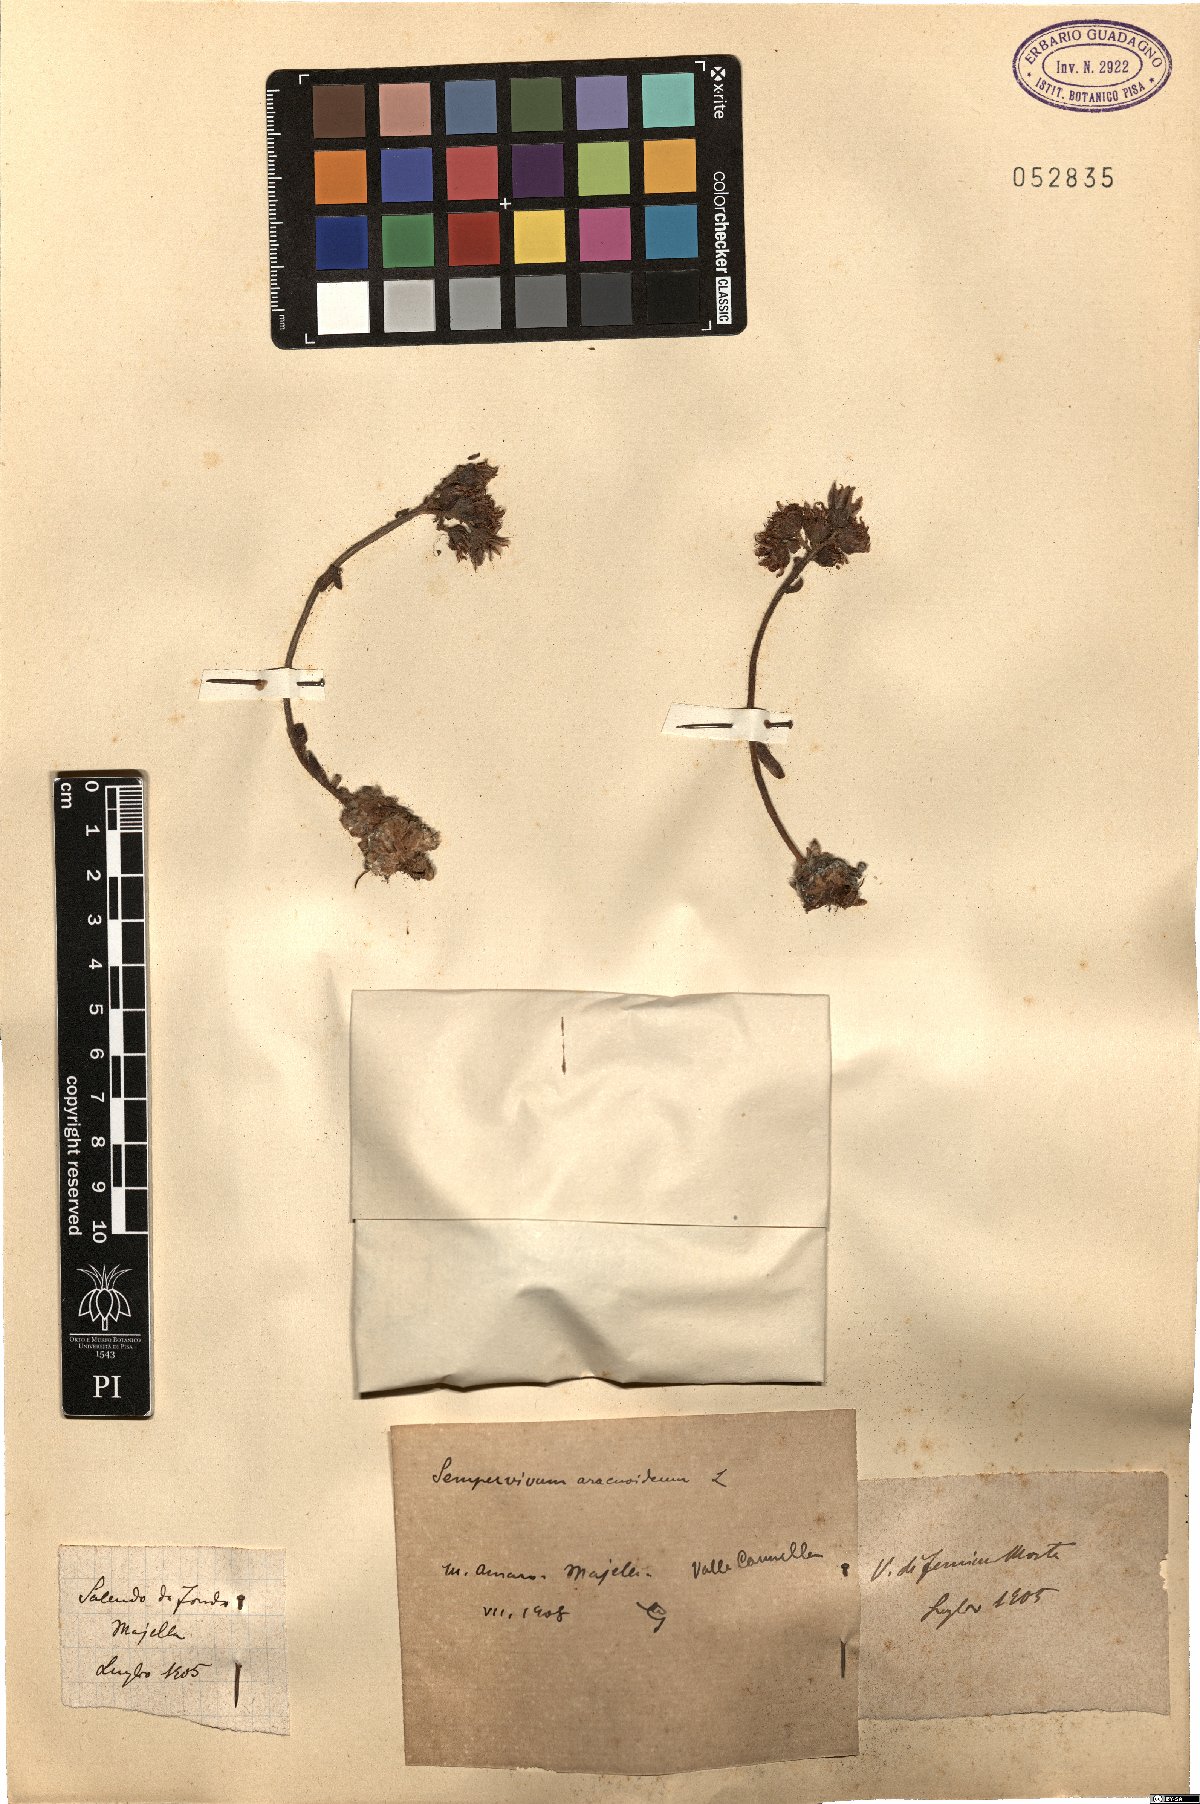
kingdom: Plantae
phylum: Tracheophyta
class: Magnoliopsida
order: Saxifragales
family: Crassulaceae
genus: Sempervivum
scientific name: Sempervivum arachnoideum
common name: Cobweb house-leek
